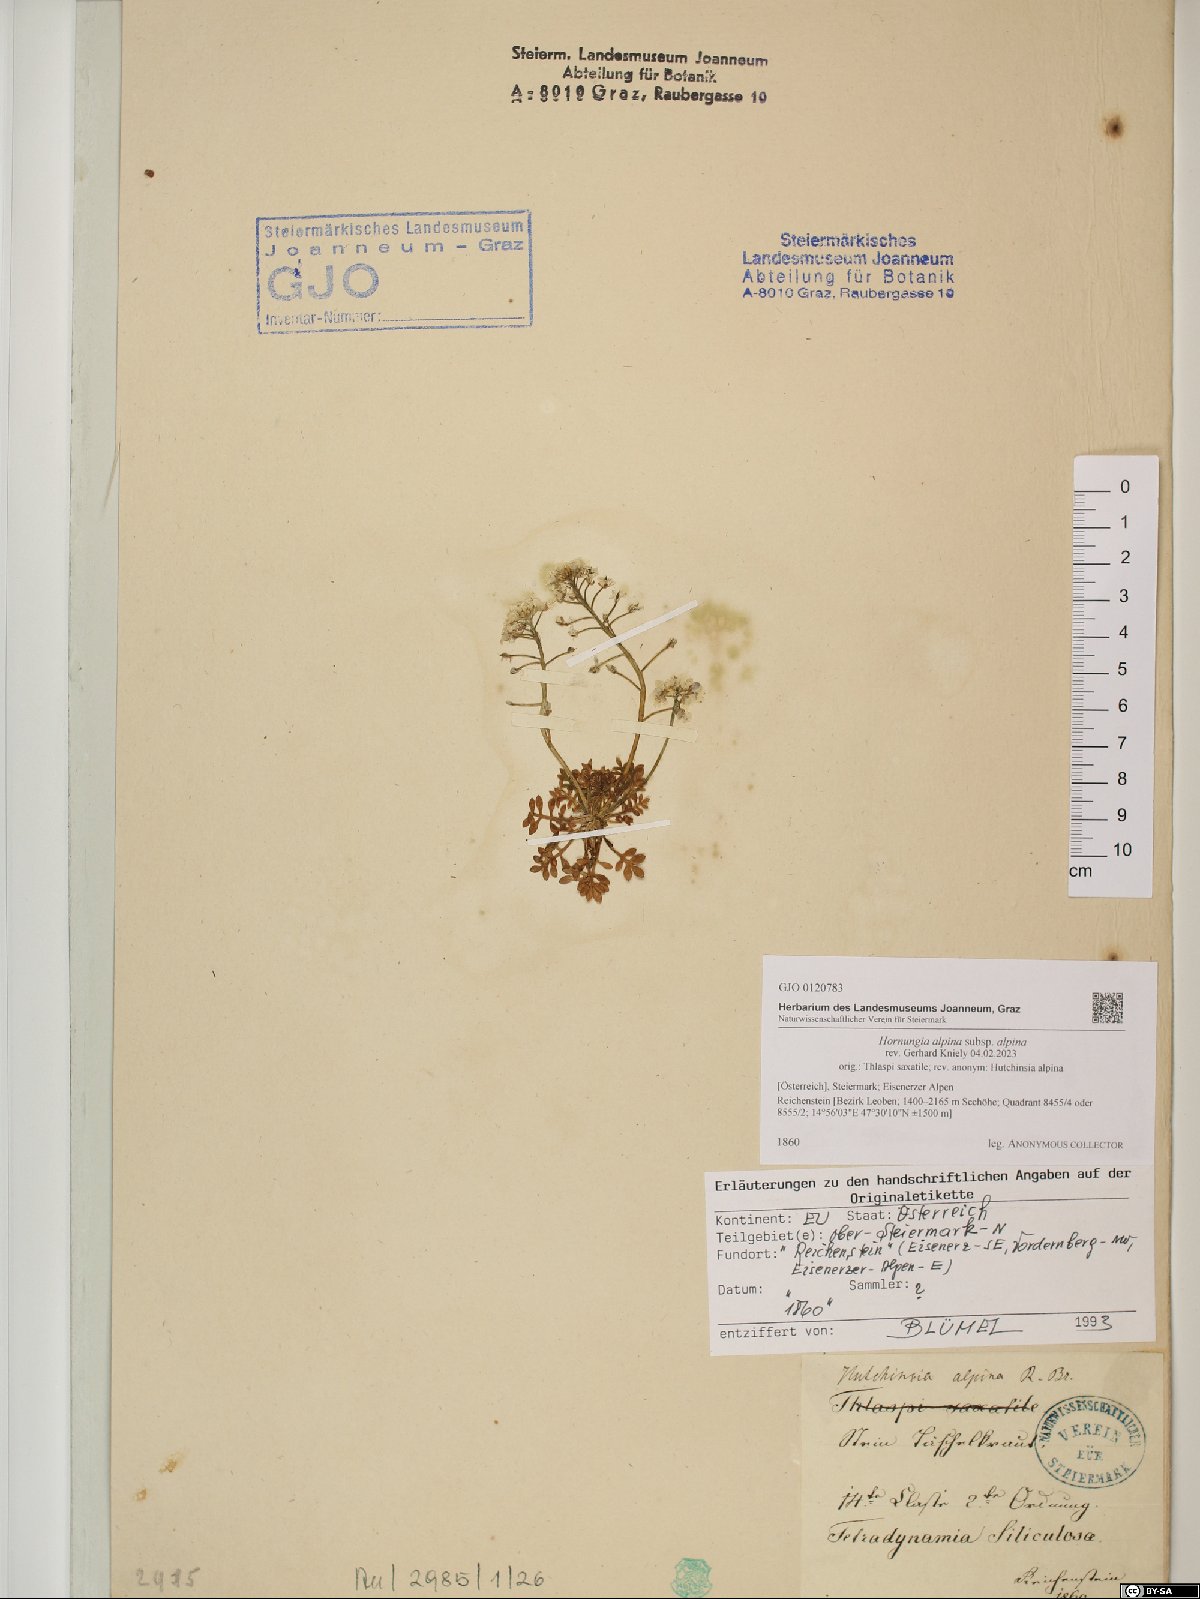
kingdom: Plantae
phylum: Tracheophyta
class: Magnoliopsida
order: Brassicales
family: Brassicaceae
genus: Hornungia
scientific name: Hornungia alpina
